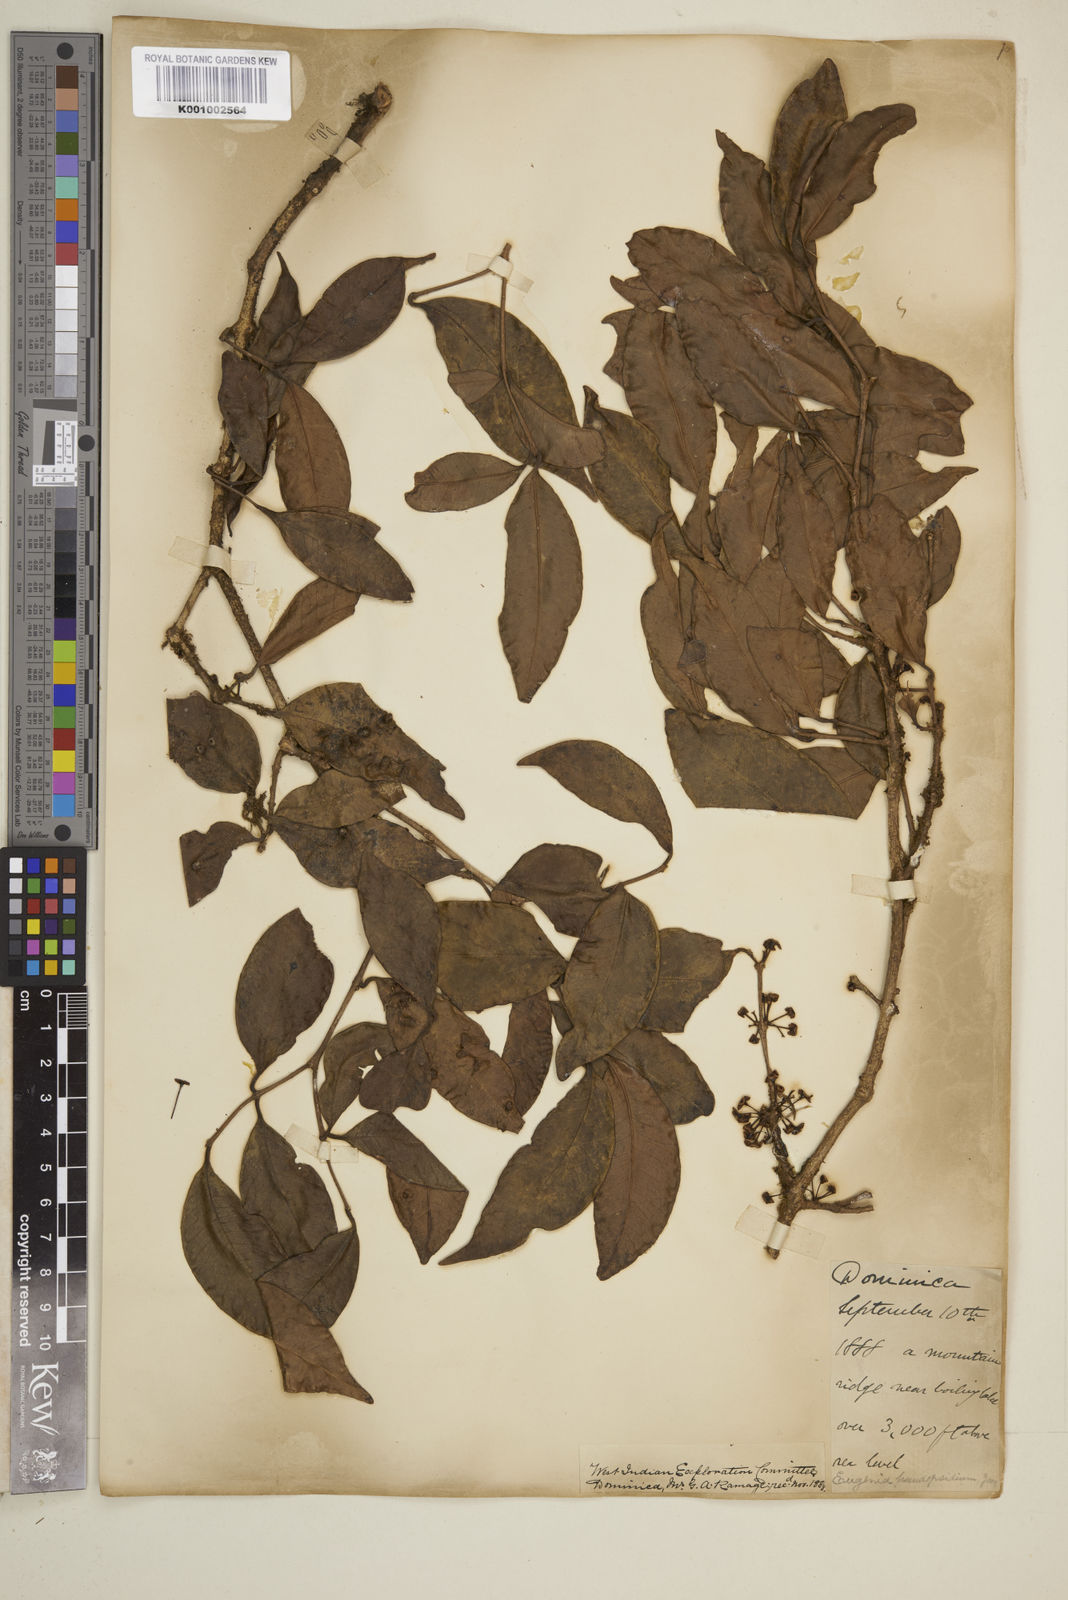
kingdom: Plantae
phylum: Tracheophyta
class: Magnoliopsida
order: Myrtales
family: Myrtaceae
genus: Eugenia
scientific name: Eugenia lambertiana
